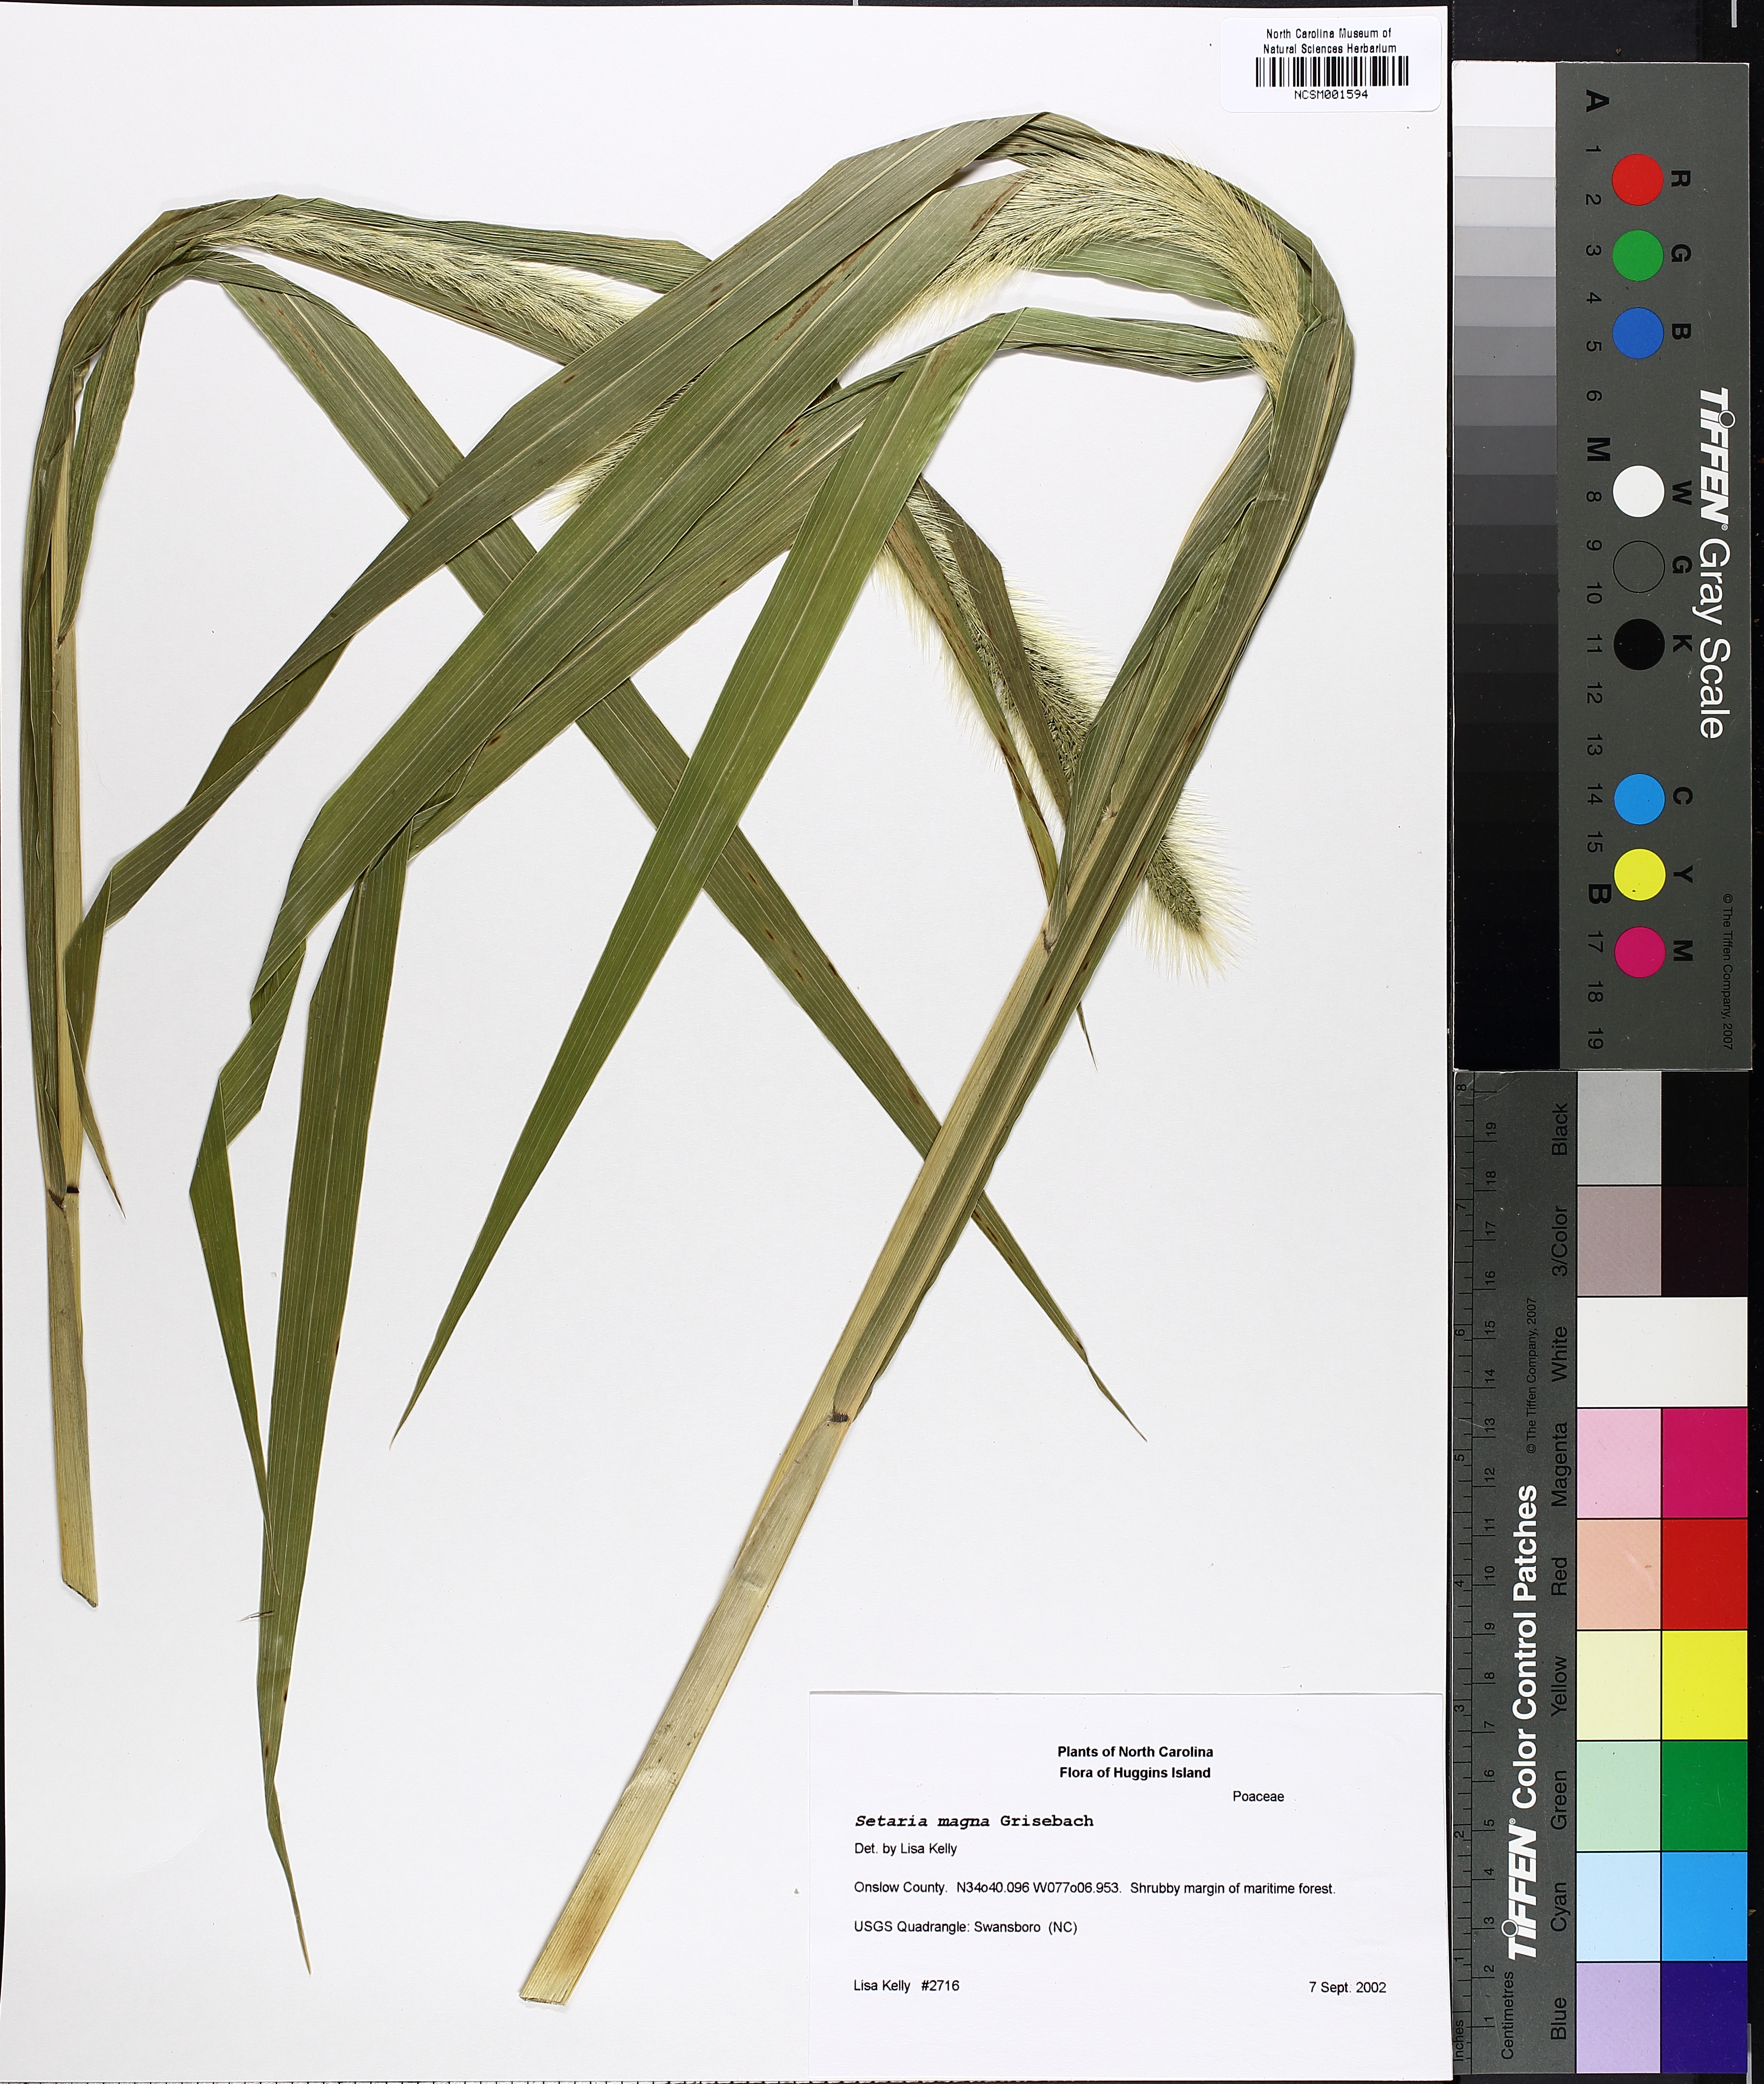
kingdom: Plantae
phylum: Tracheophyta
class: Liliopsida
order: Poales
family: Poaceae
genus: Setaria
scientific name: Setaria magna
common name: Giant bristle grass
